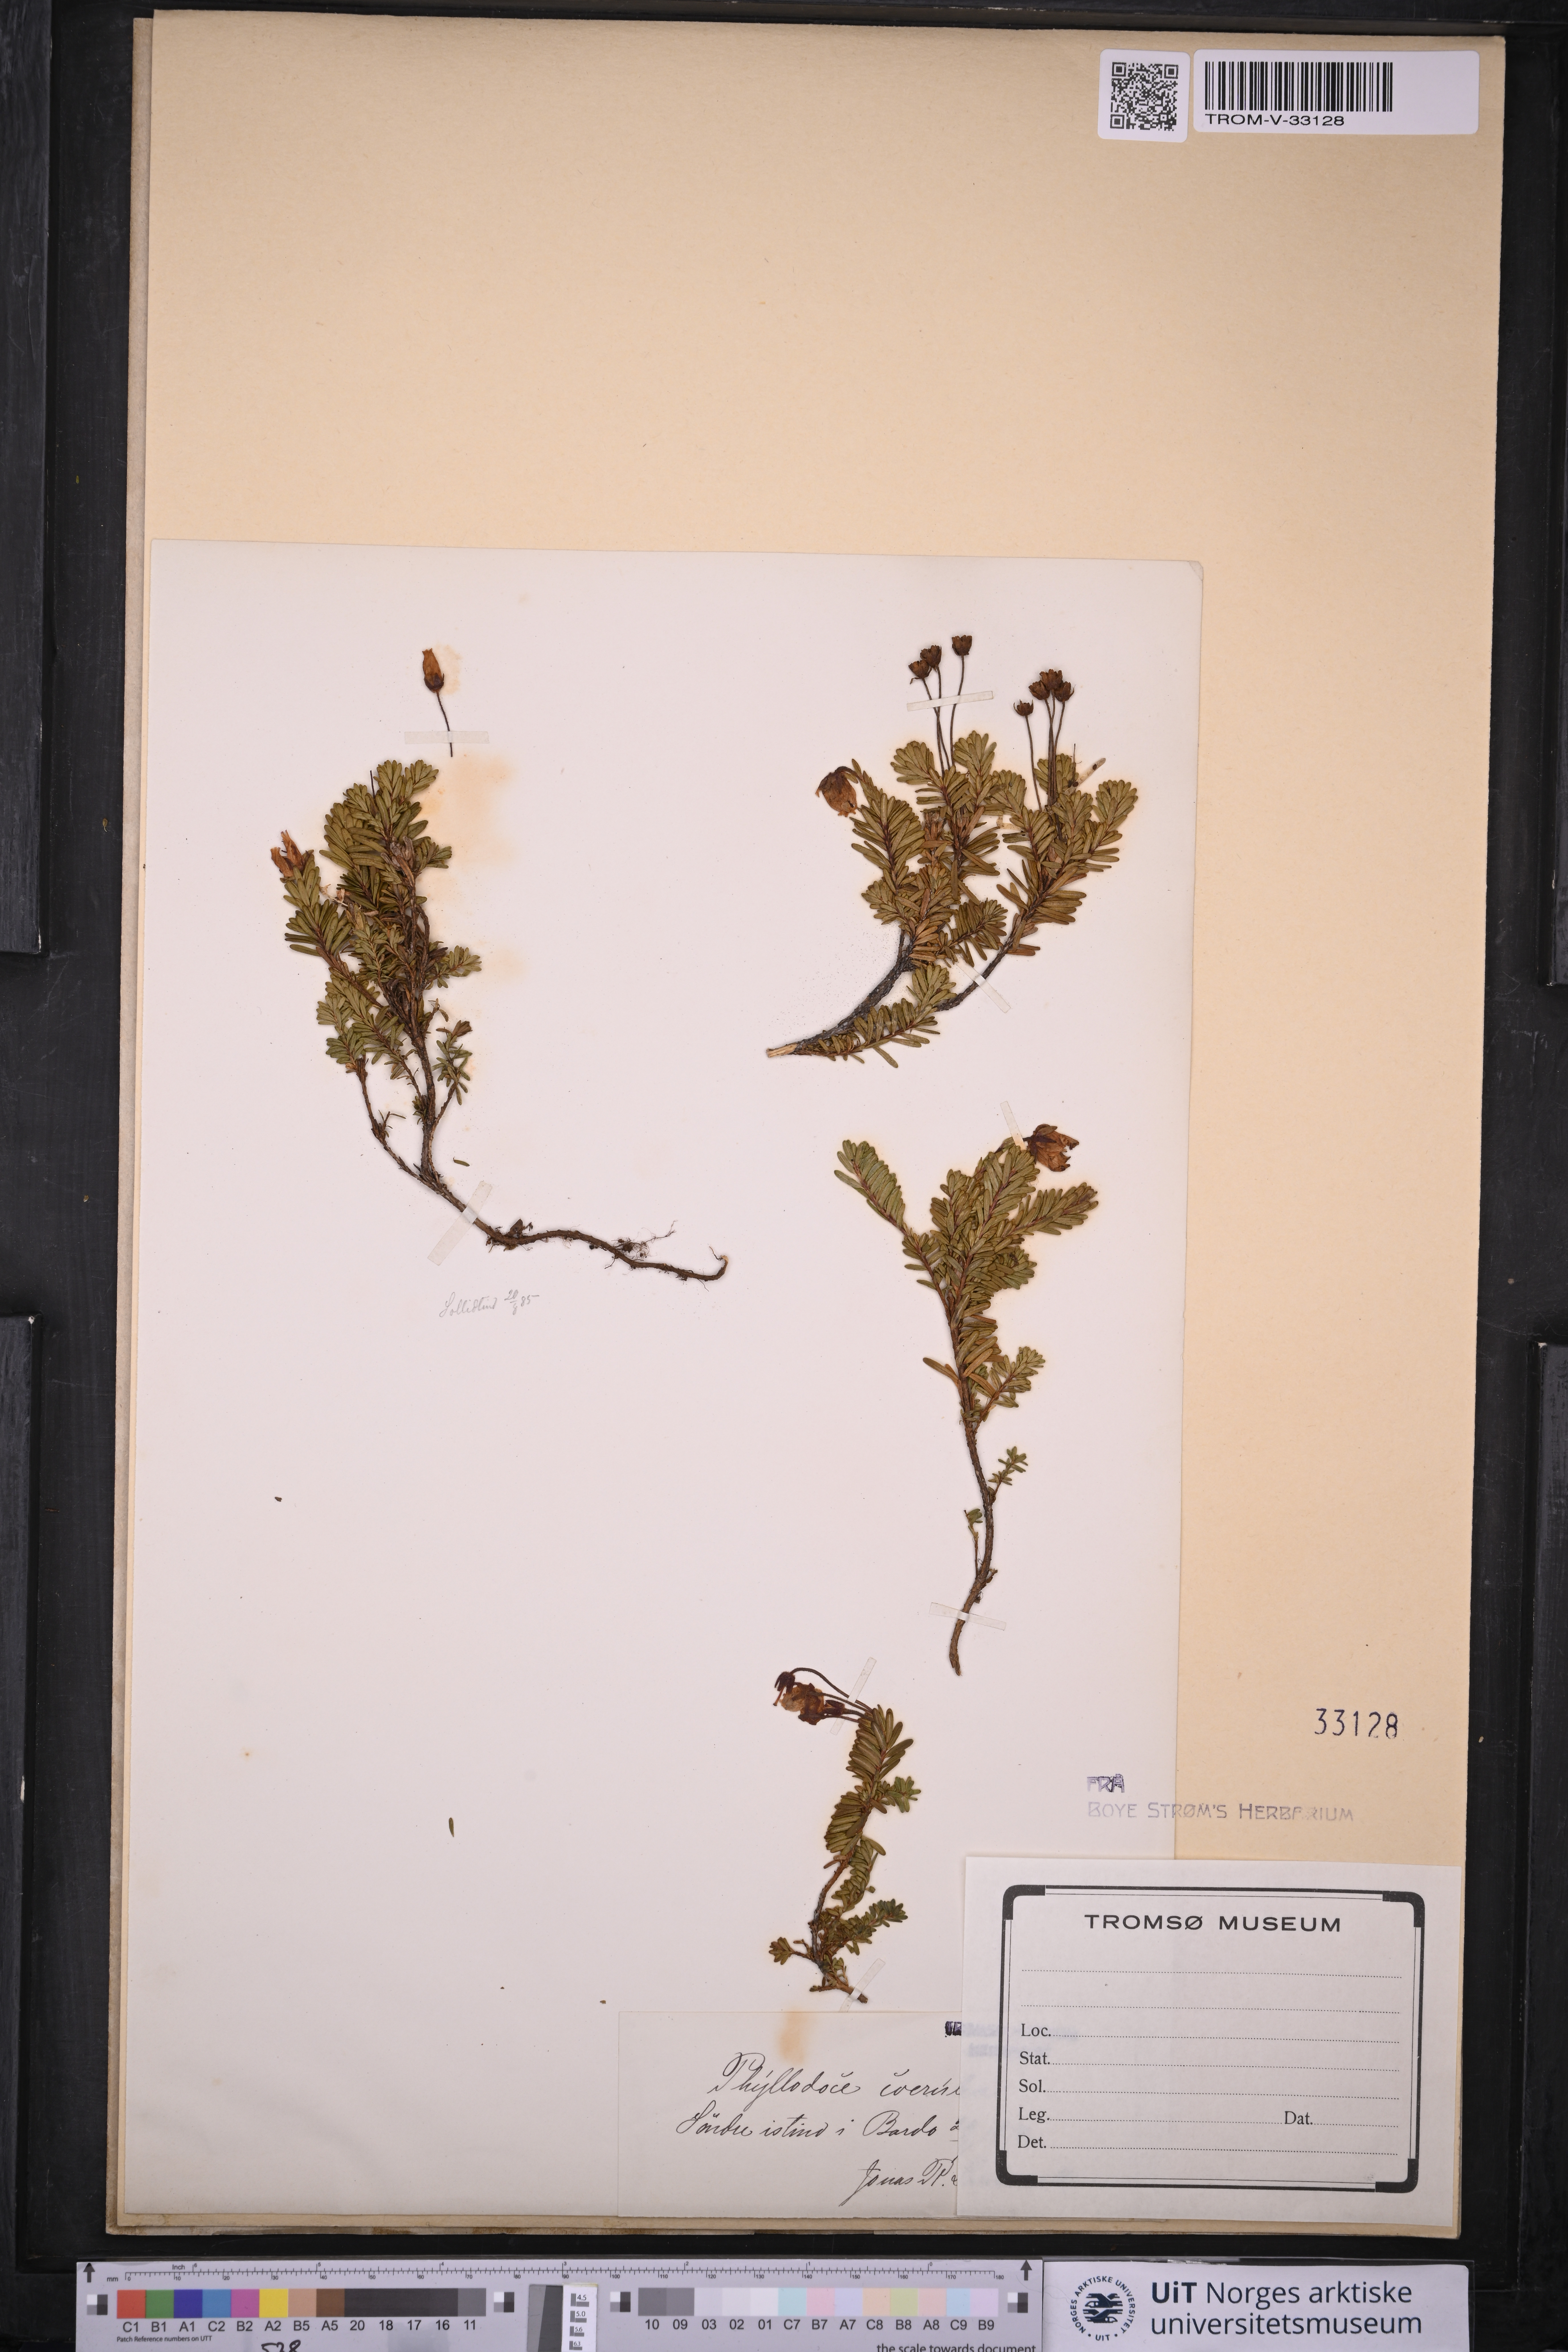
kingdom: Plantae
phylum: Tracheophyta
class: Magnoliopsida
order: Ericales
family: Ericaceae
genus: Phyllodoce
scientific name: Phyllodoce caerulea
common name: Blue heath
